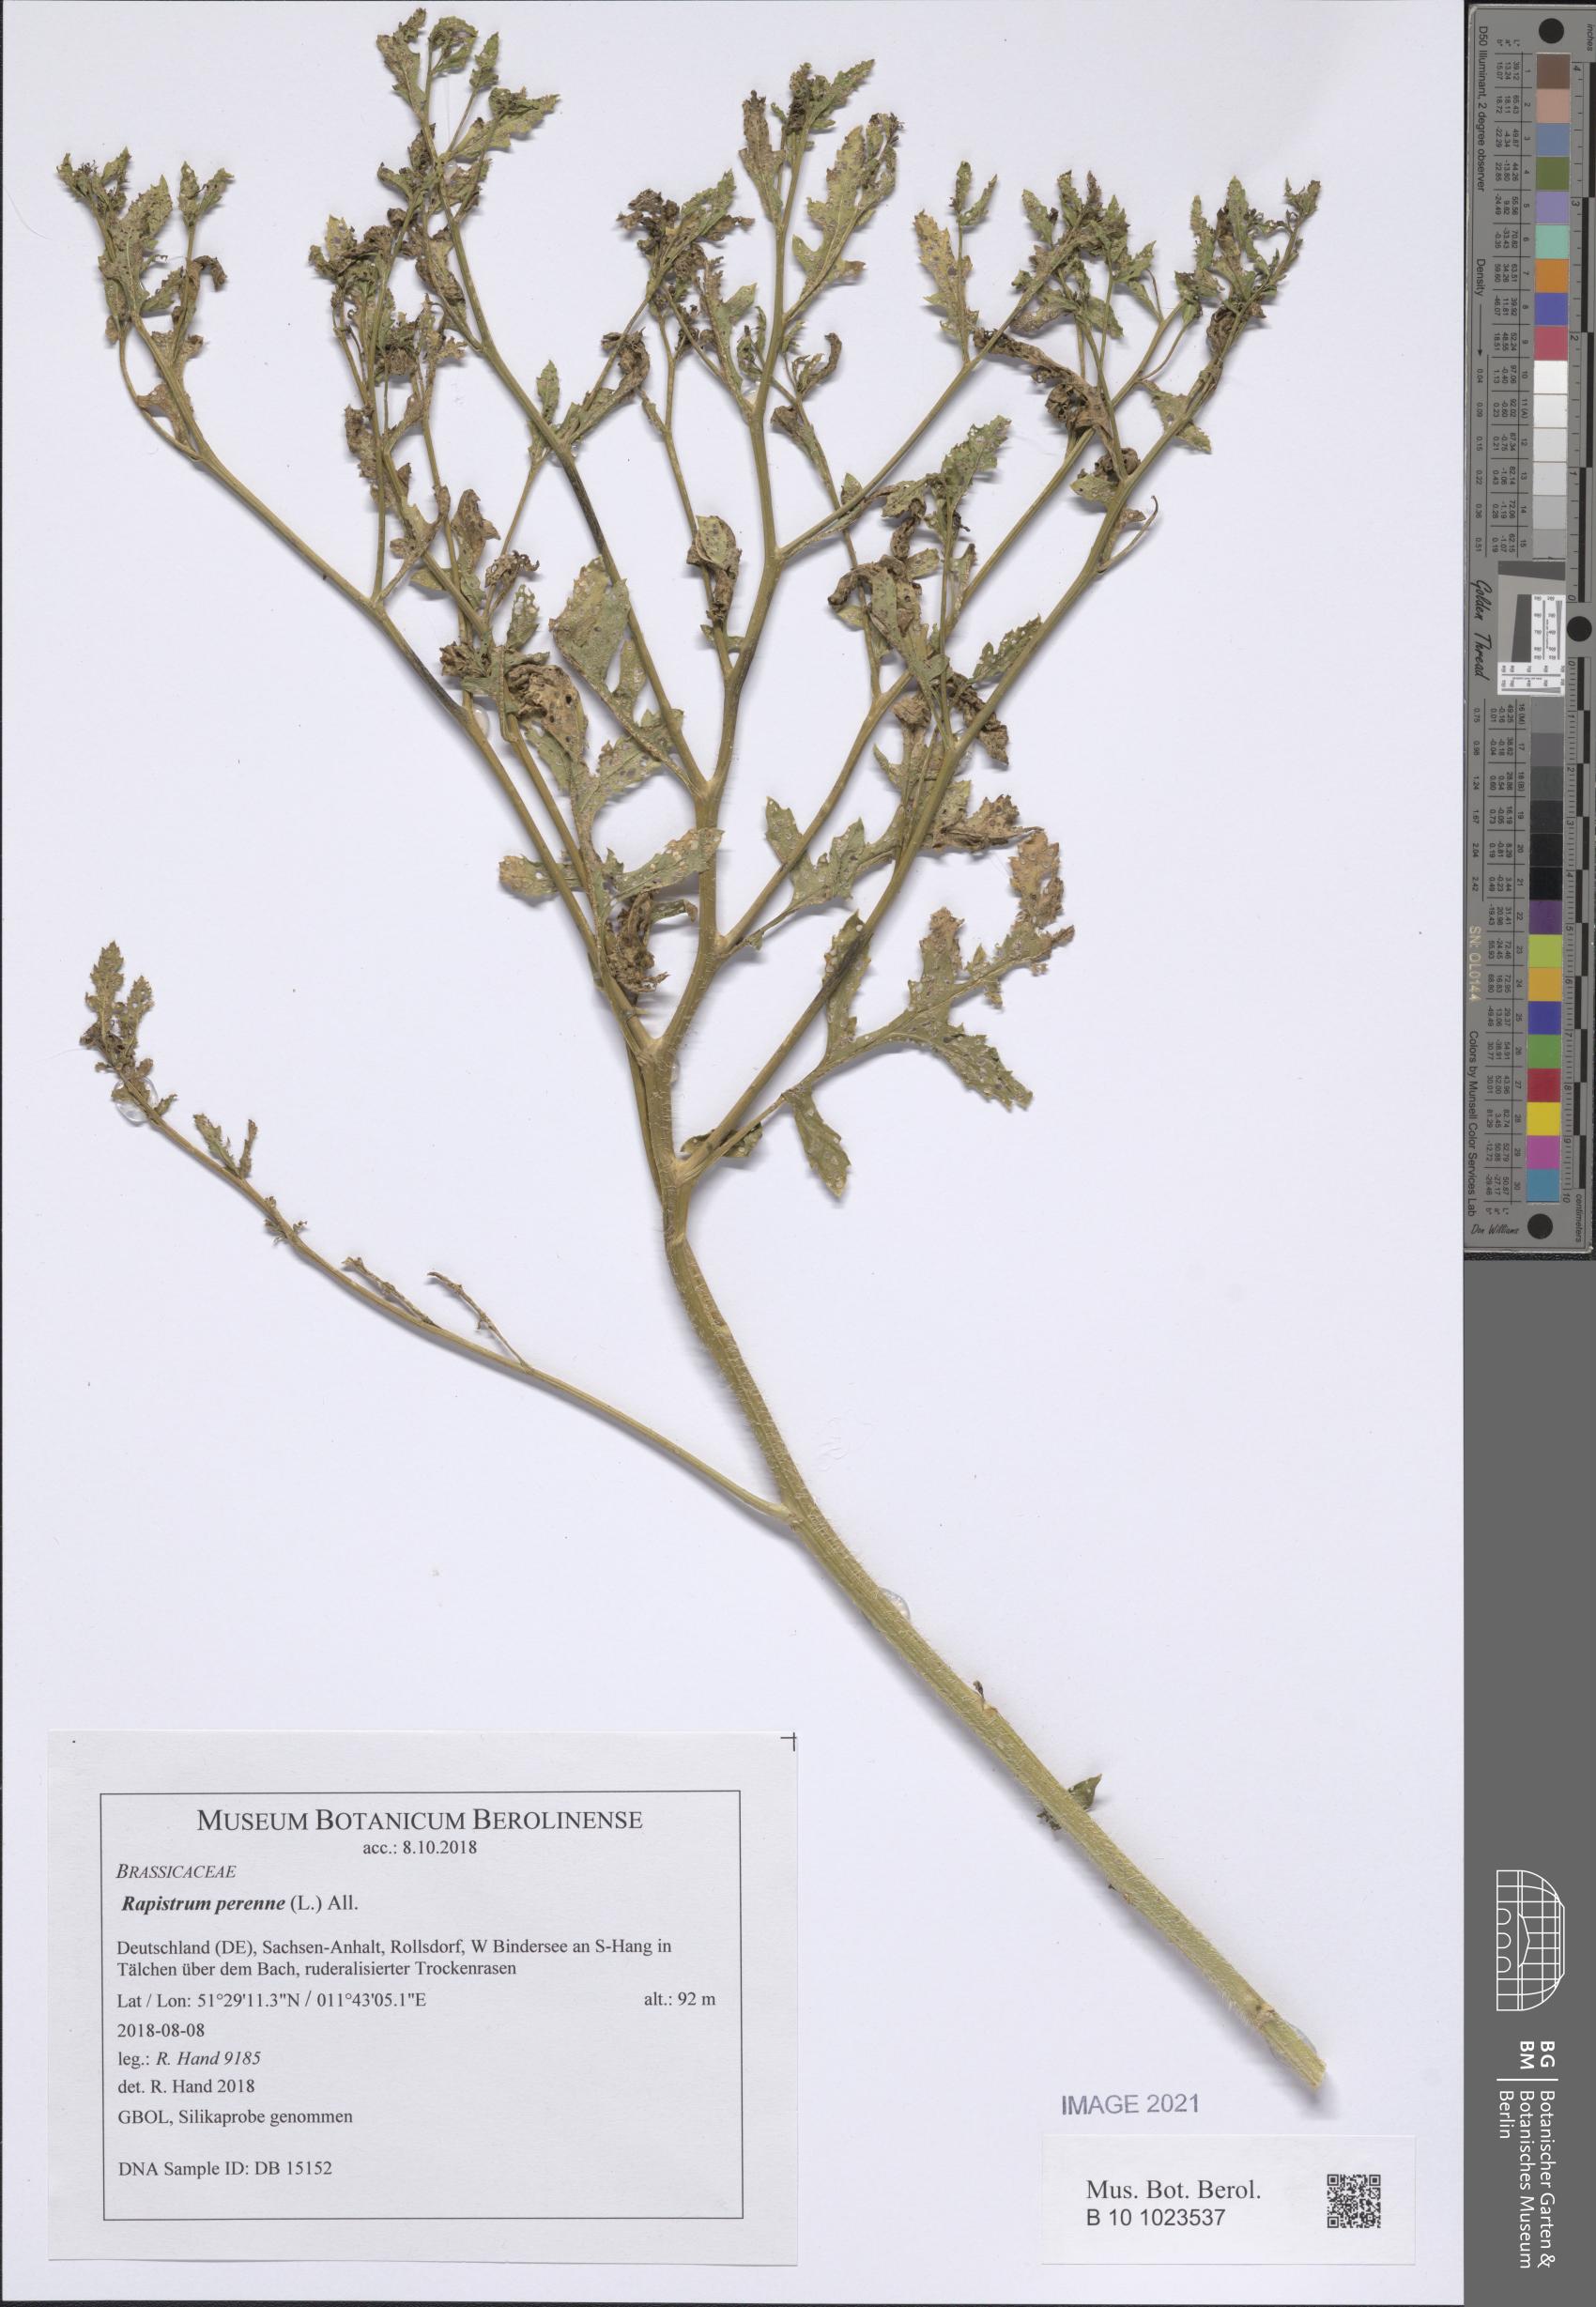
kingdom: Plantae
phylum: Tracheophyta
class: Magnoliopsida
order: Brassicales
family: Brassicaceae
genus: Rapistrum
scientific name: Rapistrum perenne
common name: Steppe cabbage
